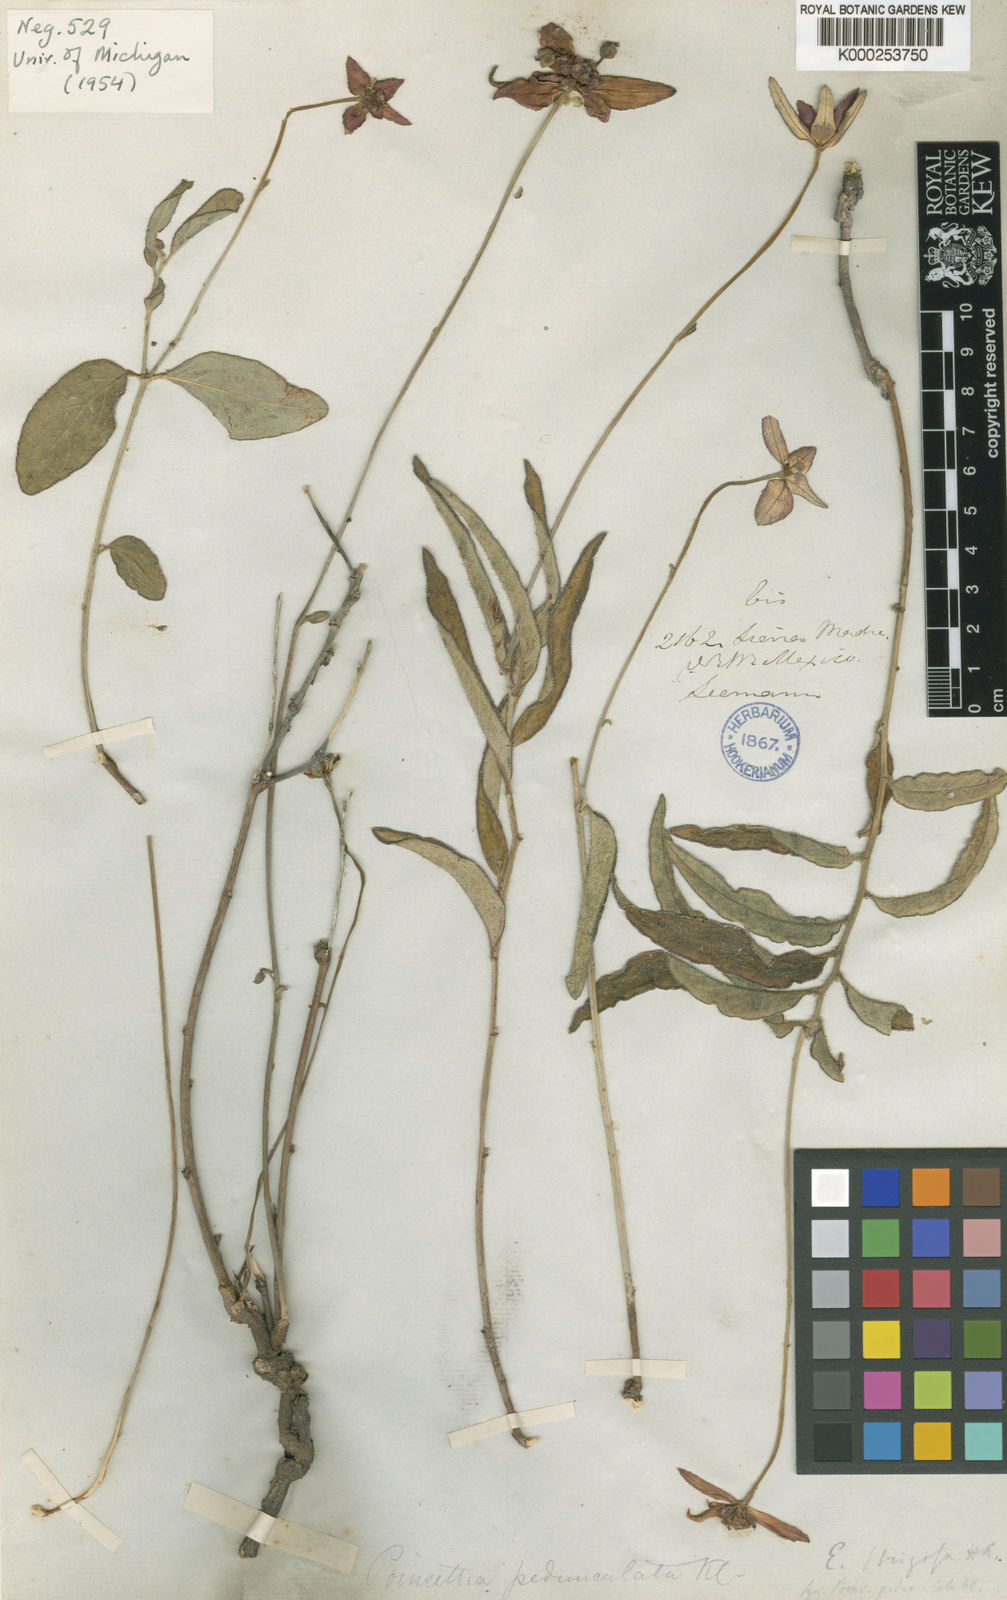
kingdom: Plantae
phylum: Tracheophyta
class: Magnoliopsida
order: Malpighiales
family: Euphorbiaceae
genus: Euphorbia
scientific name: Euphorbia strigosa
